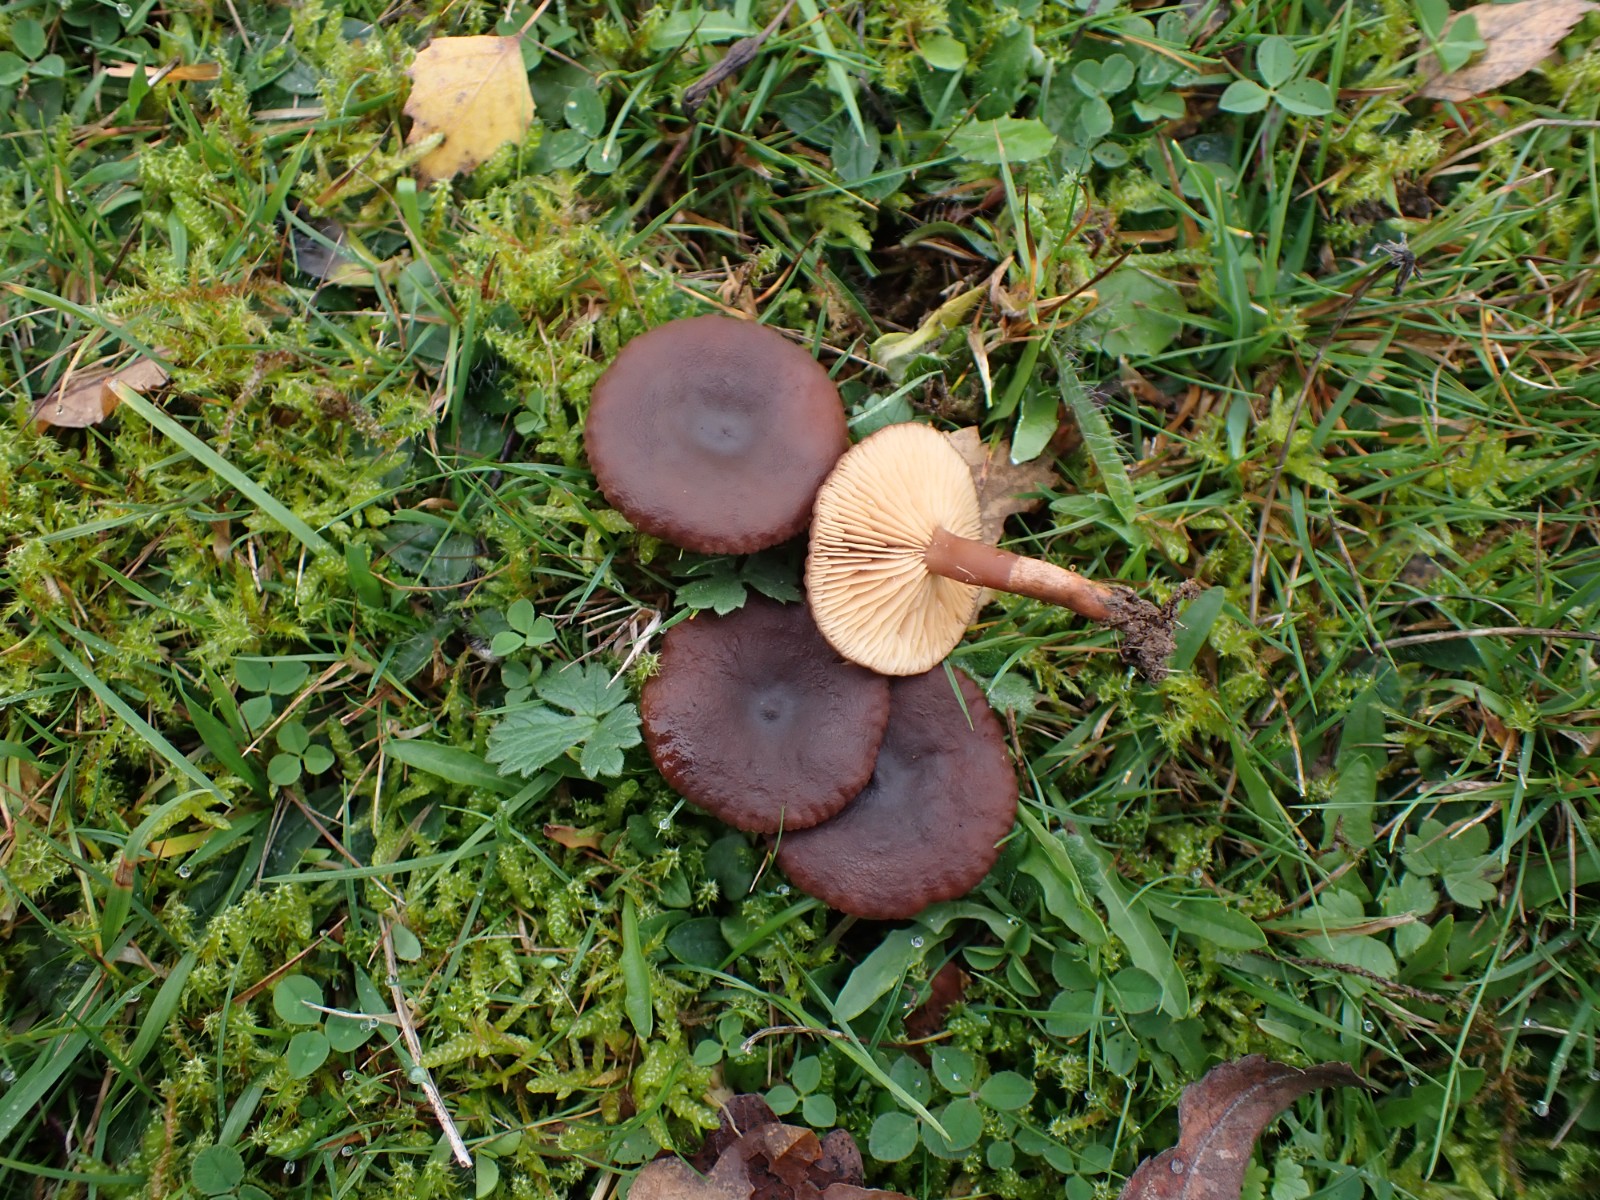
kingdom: Fungi
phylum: Basidiomycota
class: Agaricomycetes
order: Russulales
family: Russulaceae
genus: Lactarius
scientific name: Lactarius serifluus
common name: tæge-mælkehat
